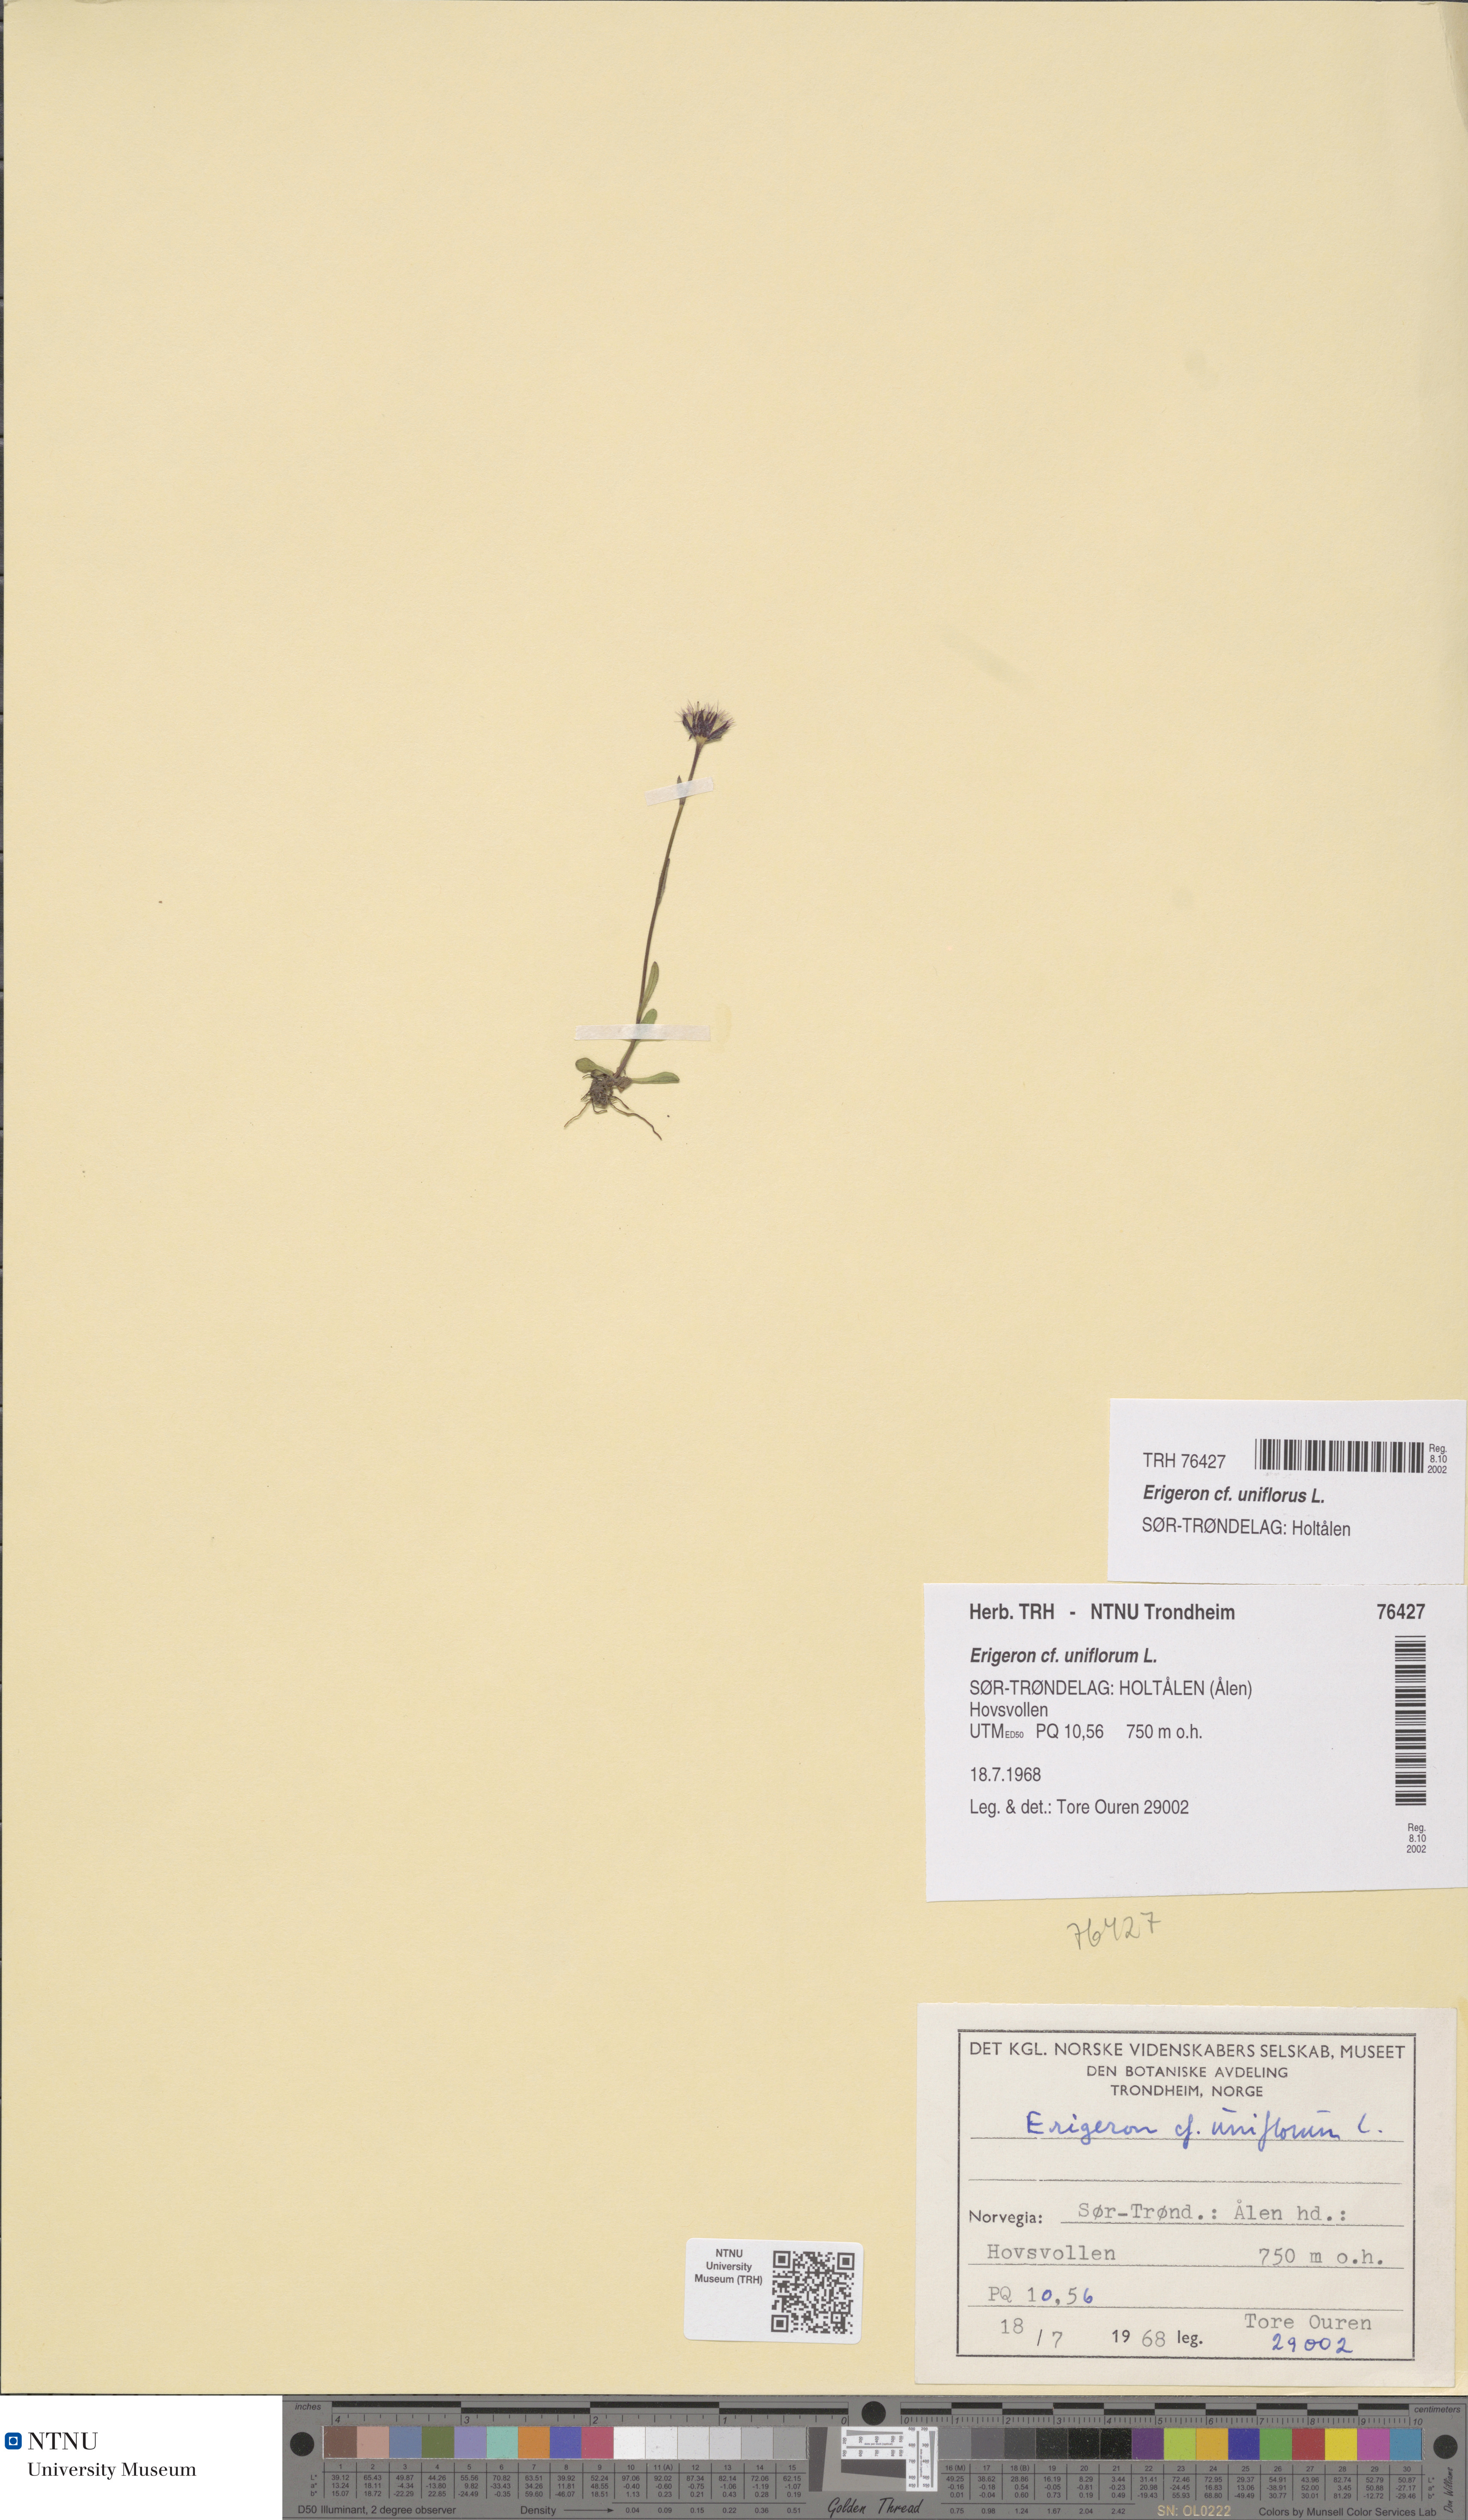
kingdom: Plantae
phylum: Tracheophyta
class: Magnoliopsida
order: Asterales
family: Asteraceae
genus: Erigeron
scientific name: Erigeron uniflorus
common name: Northern daisy
